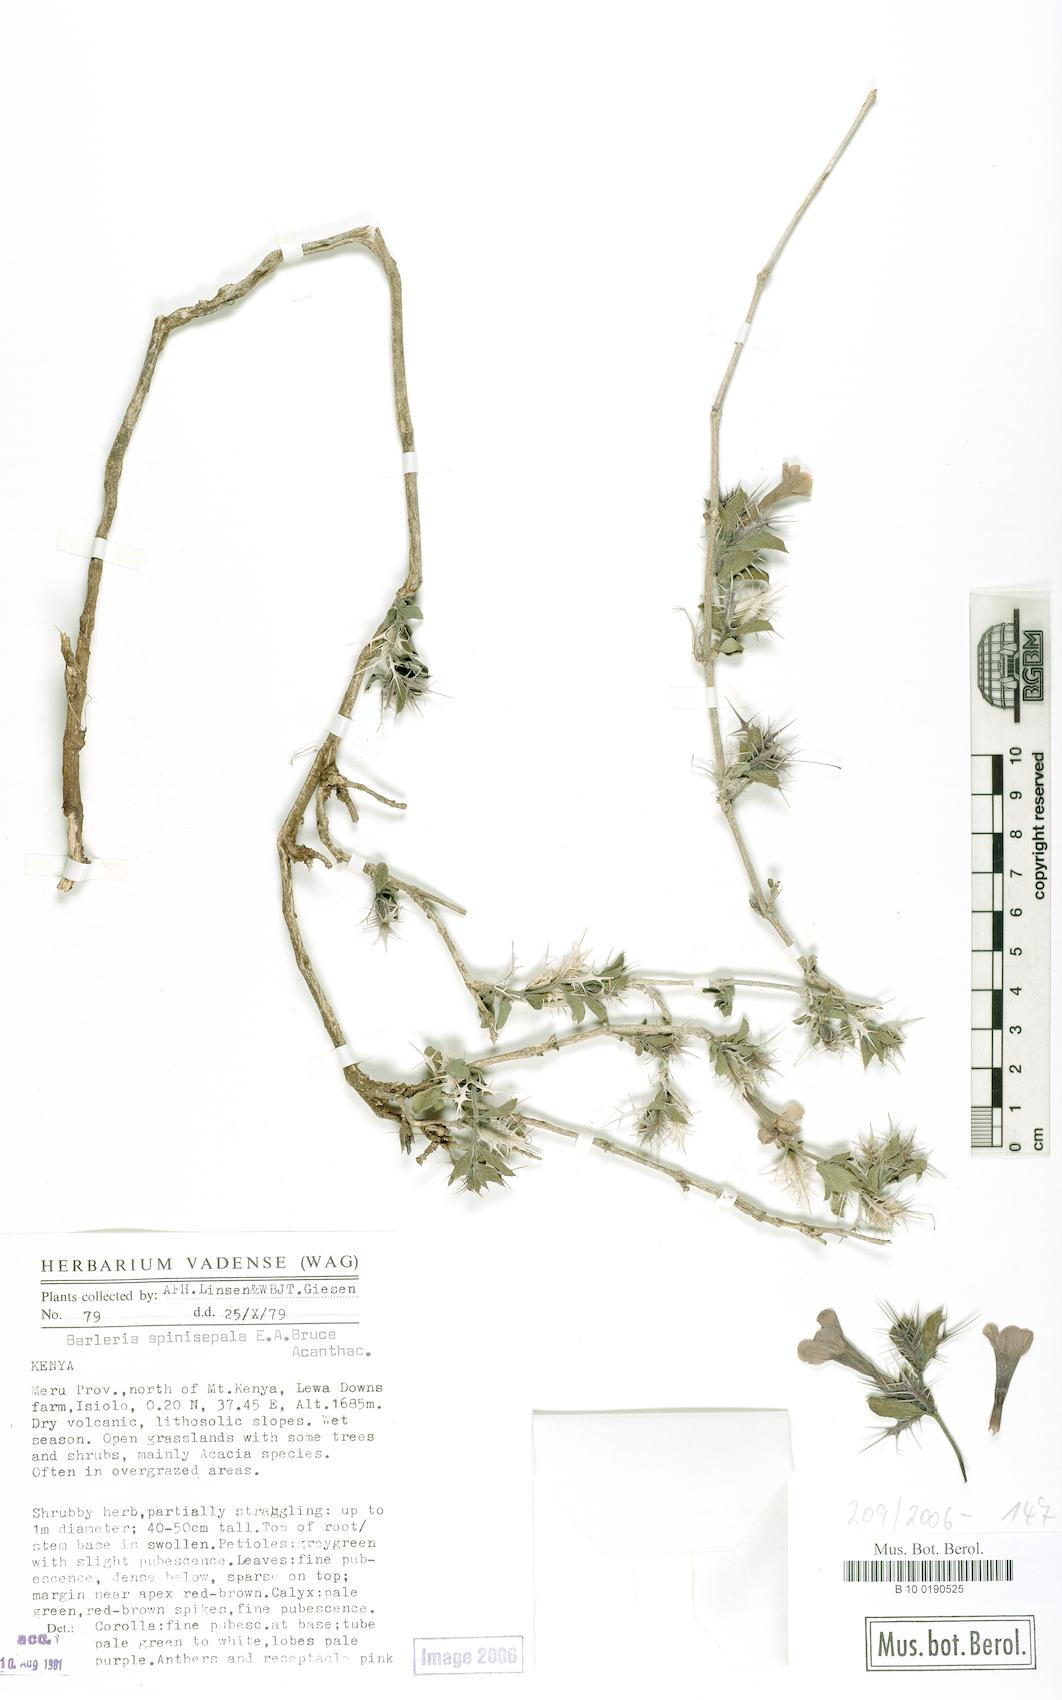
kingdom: Plantae
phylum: Tracheophyta
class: Magnoliopsida
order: Lamiales
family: Acanthaceae
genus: Barleria
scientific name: Barleria delamerei
